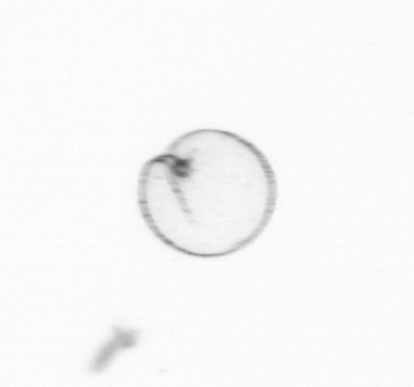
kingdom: Chromista
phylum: Myzozoa
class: Dinophyceae
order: Noctilucales
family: Noctilucaceae
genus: Noctiluca
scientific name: Noctiluca scintillans
